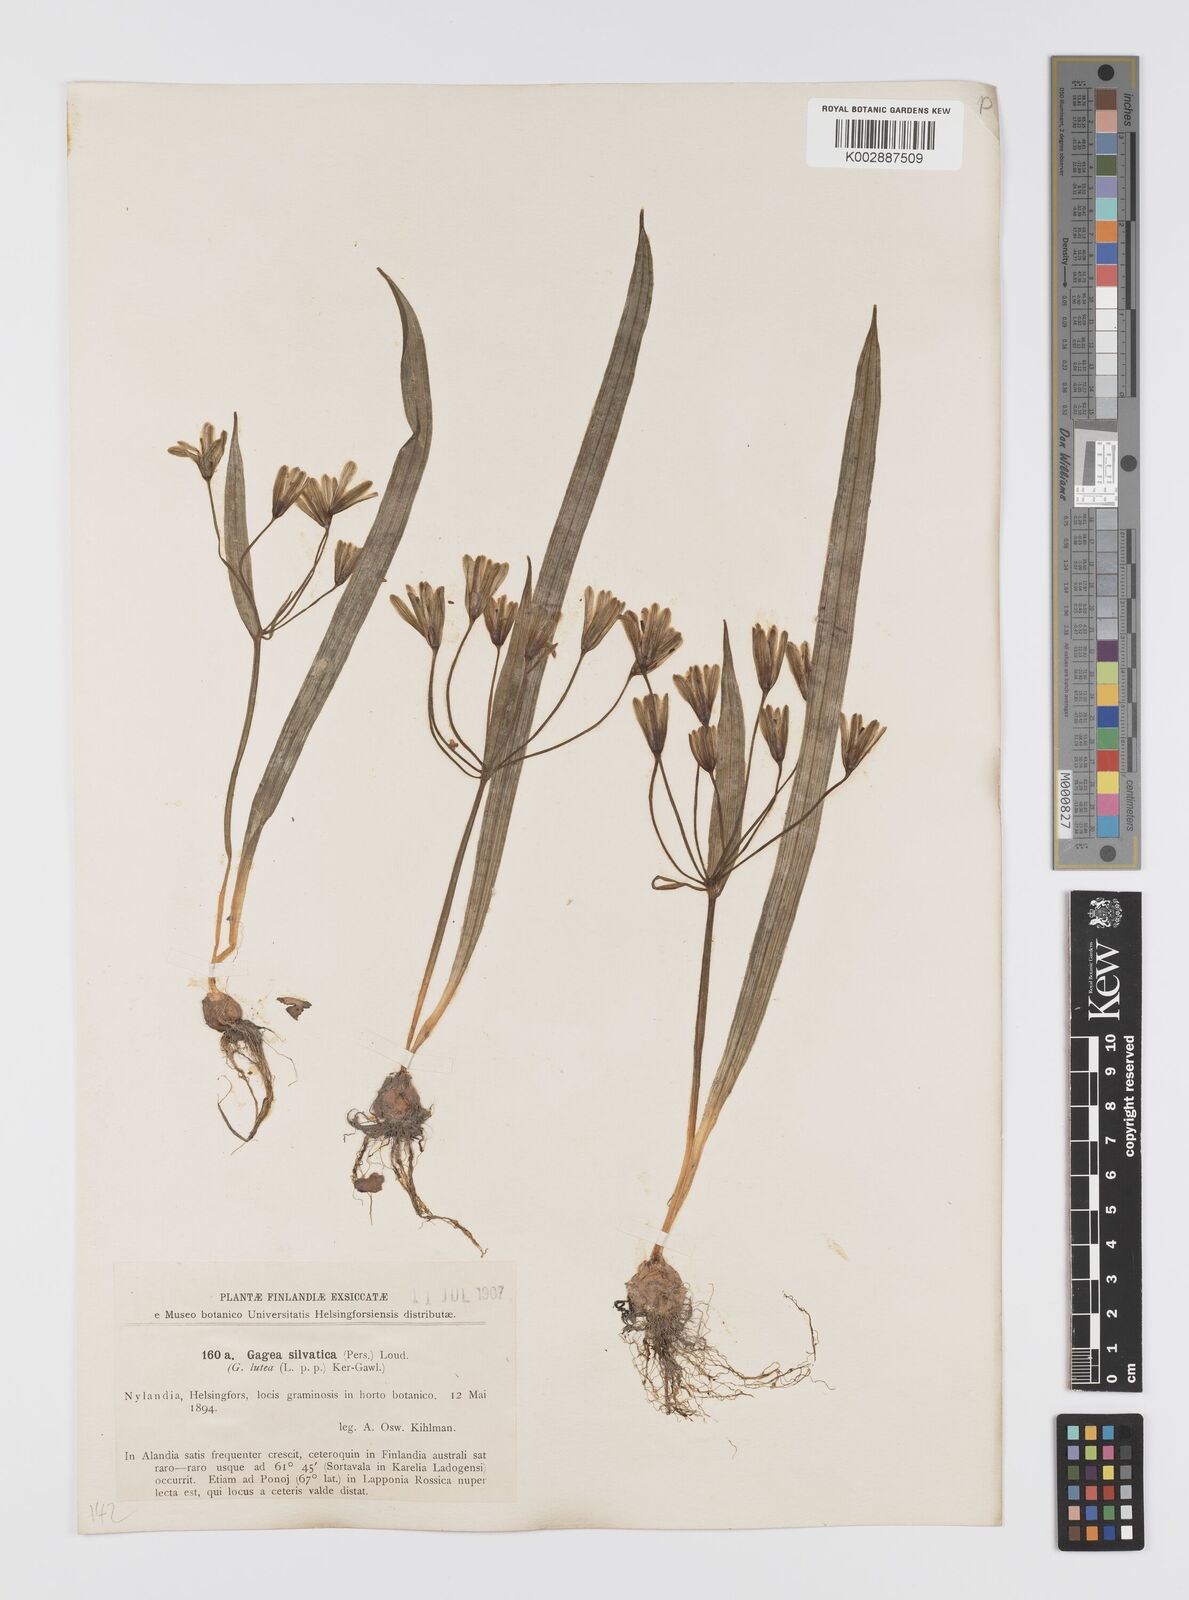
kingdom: Plantae
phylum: Tracheophyta
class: Liliopsida
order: Liliales
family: Liliaceae
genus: Gagea
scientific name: Gagea lutea
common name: Yellow star-of-bethlehem
